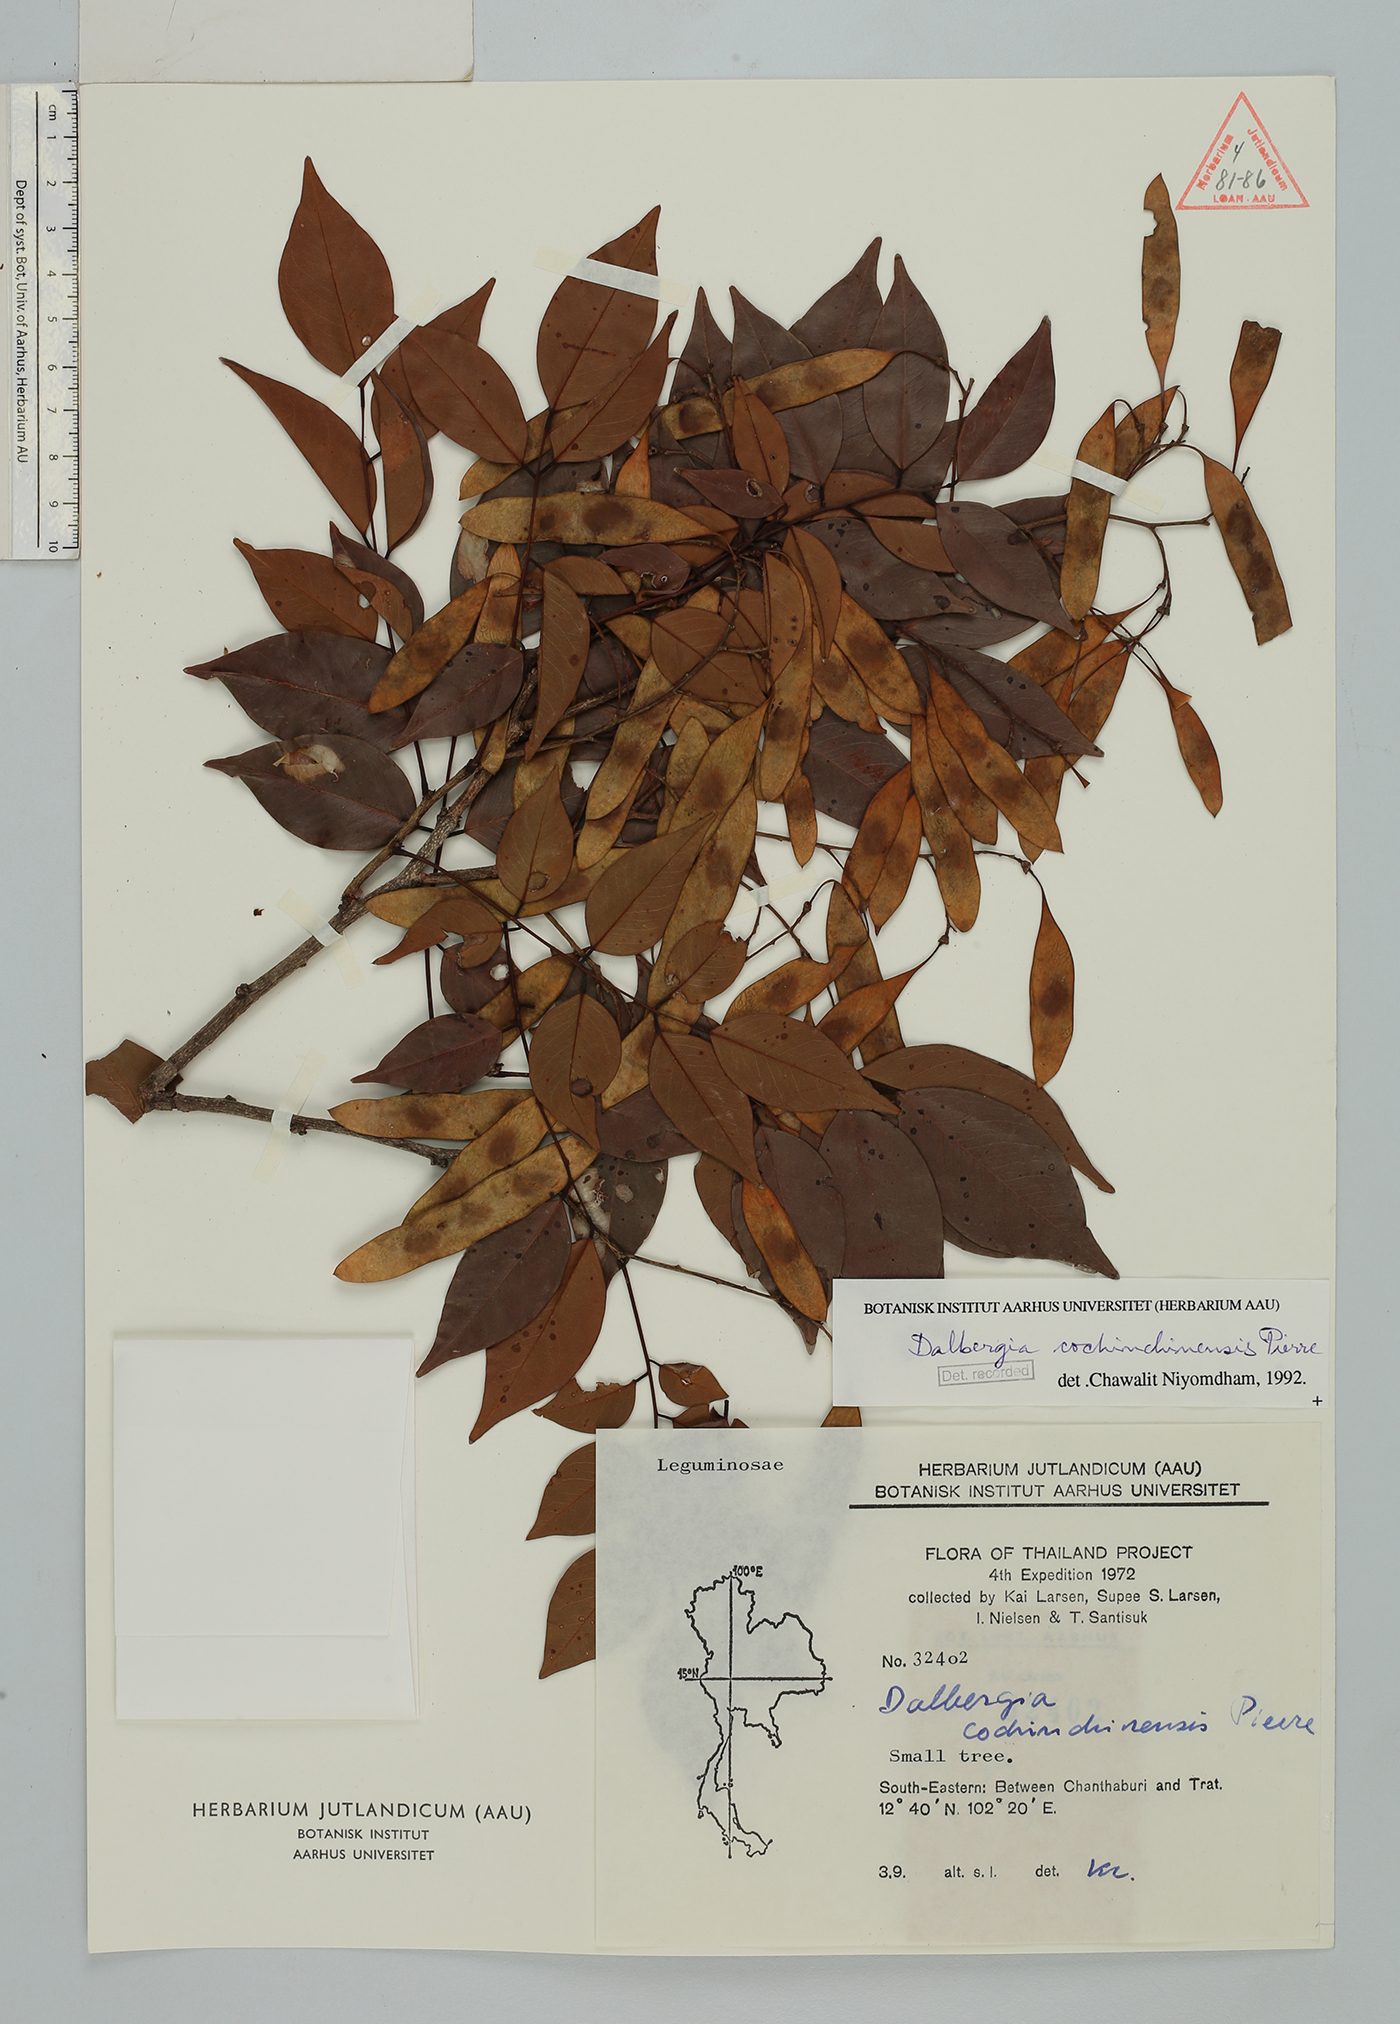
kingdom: Plantae
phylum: Tracheophyta
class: Magnoliopsida
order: Fabales
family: Fabaceae
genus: Dalbergia
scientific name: Dalbergia cochinchinensis
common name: Siamese rosewood
